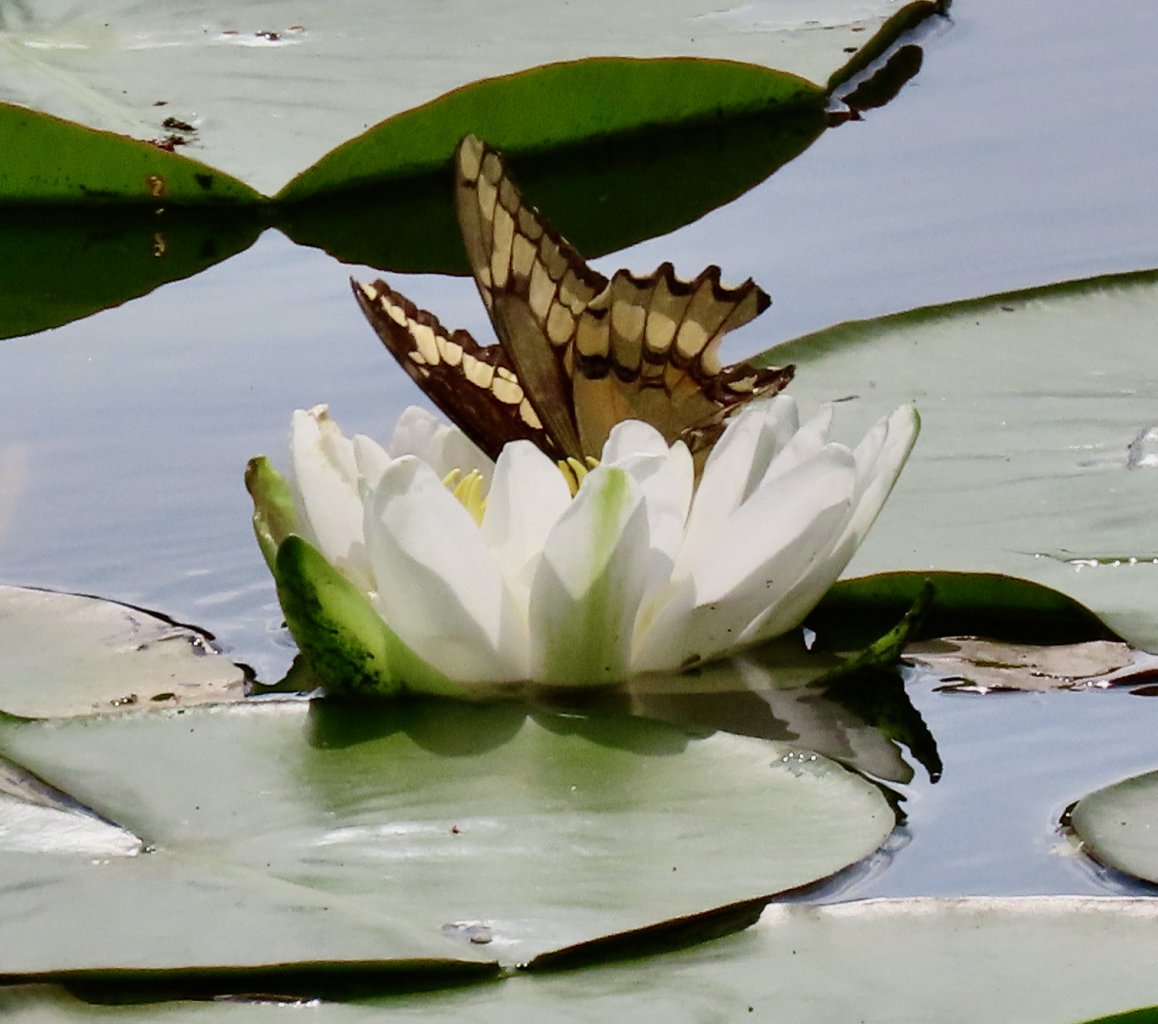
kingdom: Animalia
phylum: Arthropoda
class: Insecta
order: Lepidoptera
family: Papilionidae
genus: Papilio
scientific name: Papilio cresphontes
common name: Eastern Giant Swallowtail
